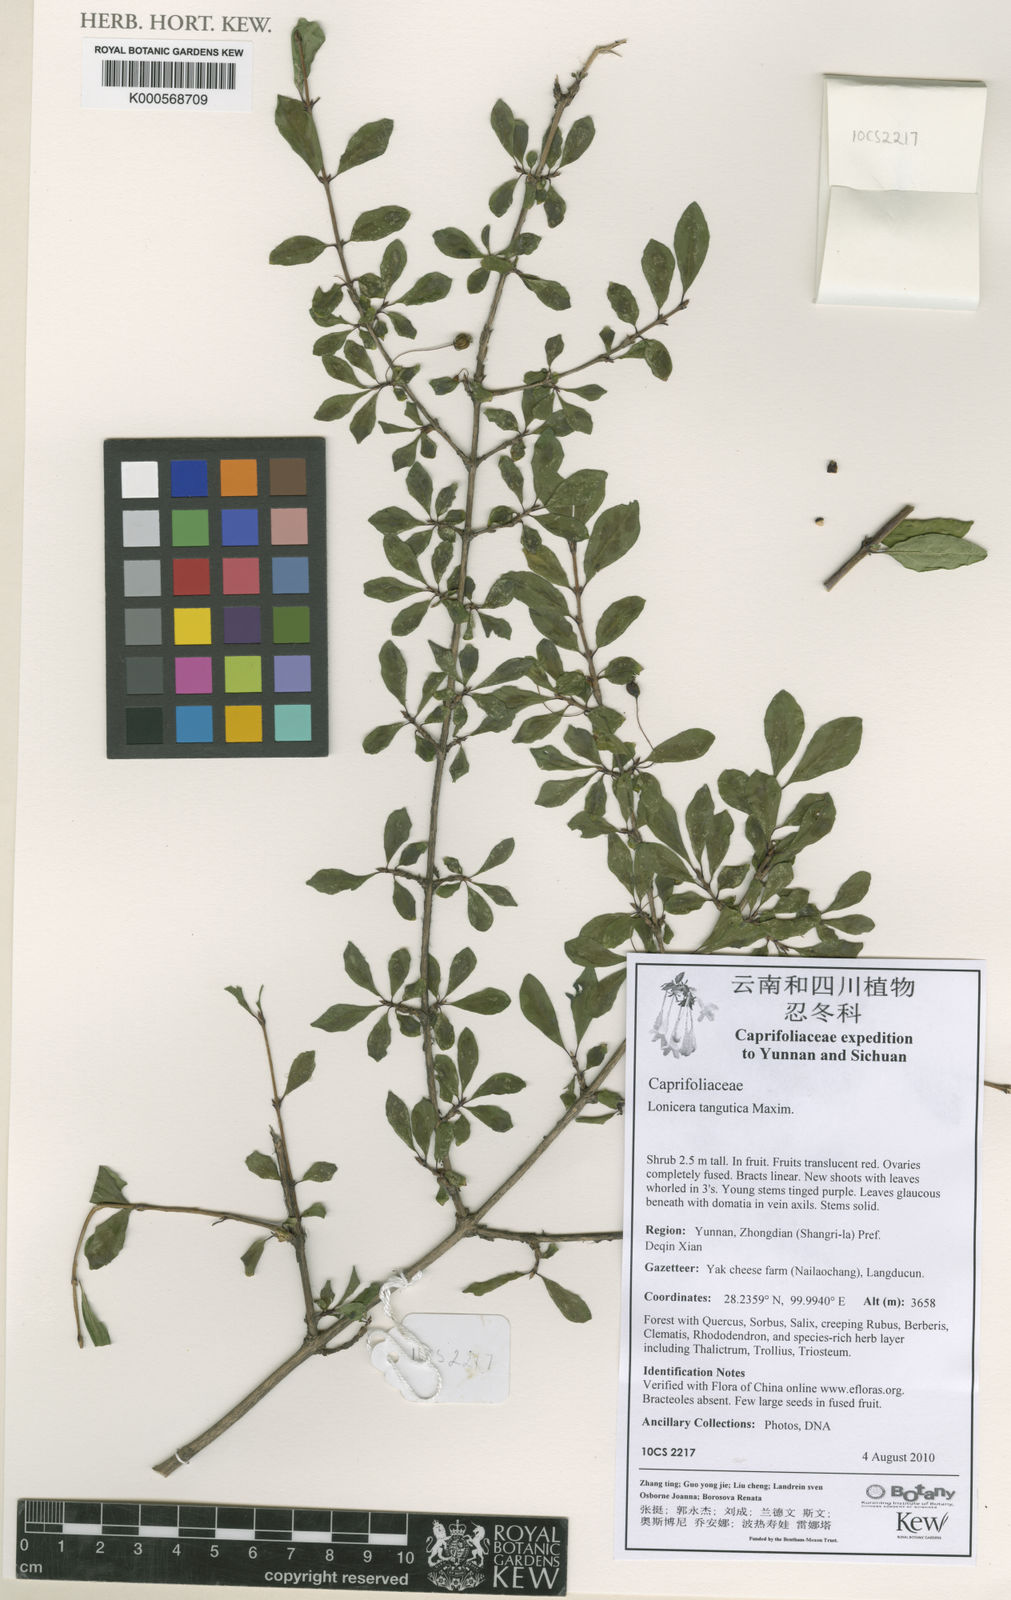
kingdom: Plantae
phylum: Tracheophyta
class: Magnoliopsida
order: Dipsacales
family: Caprifoliaceae
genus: Lonicera
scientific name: Lonicera tangutica
